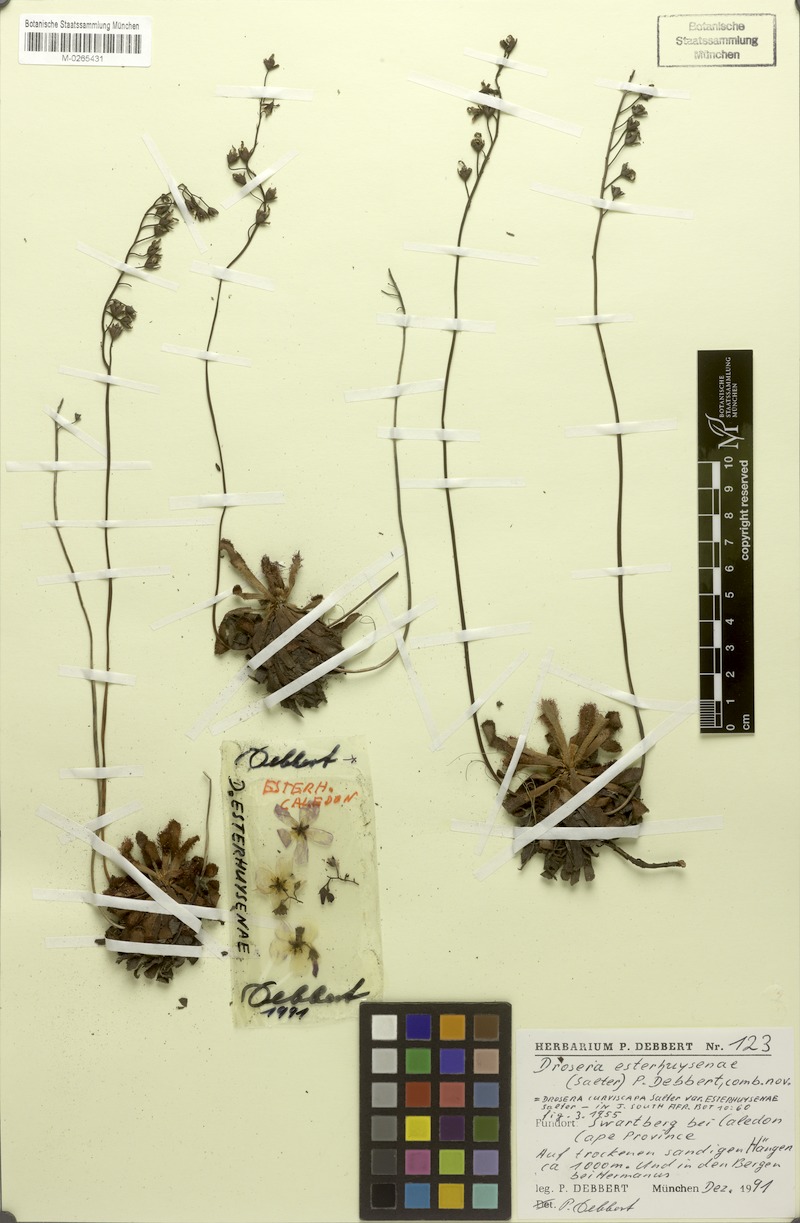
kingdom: Plantae
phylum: Tracheophyta
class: Magnoliopsida
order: Caryophyllales
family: Droseraceae
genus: Drosera
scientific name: Drosera aliciae
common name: Alice sundew
